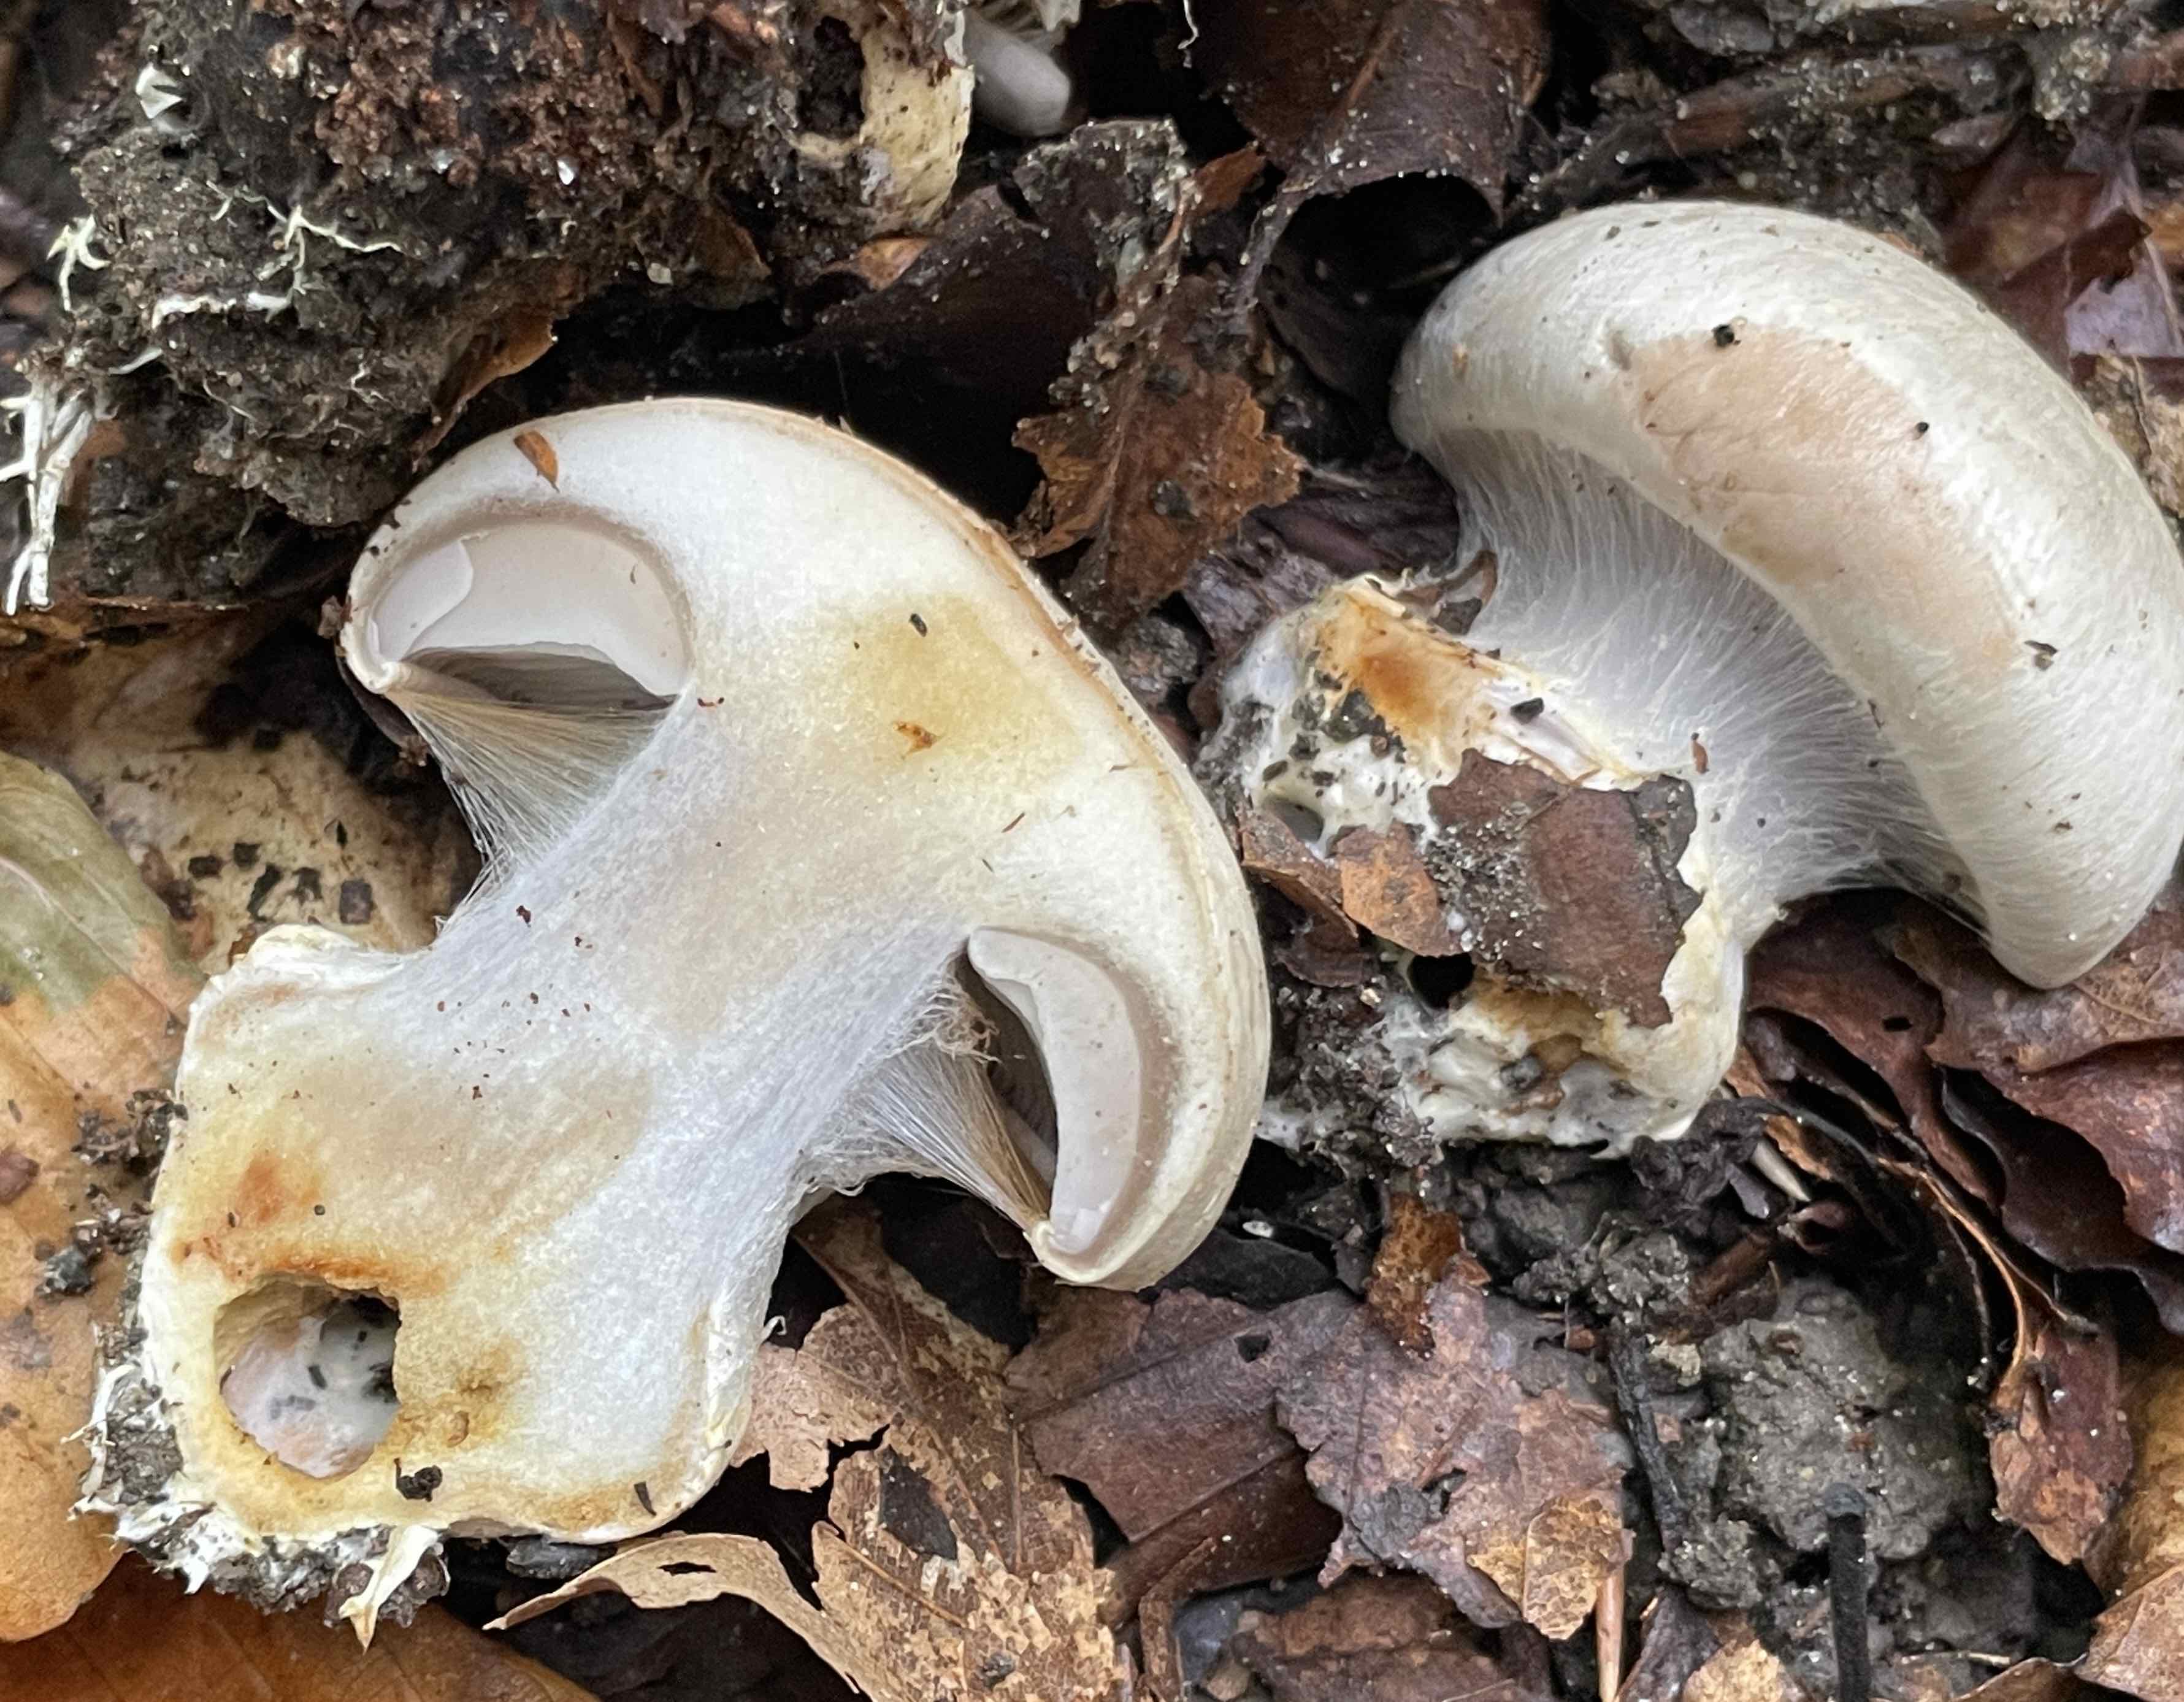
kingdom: Fungi
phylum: Basidiomycota
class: Agaricomycetes
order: Agaricales
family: Cortinariaceae
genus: Cortinarius
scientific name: Cortinarius foetens
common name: stribet slørhat
